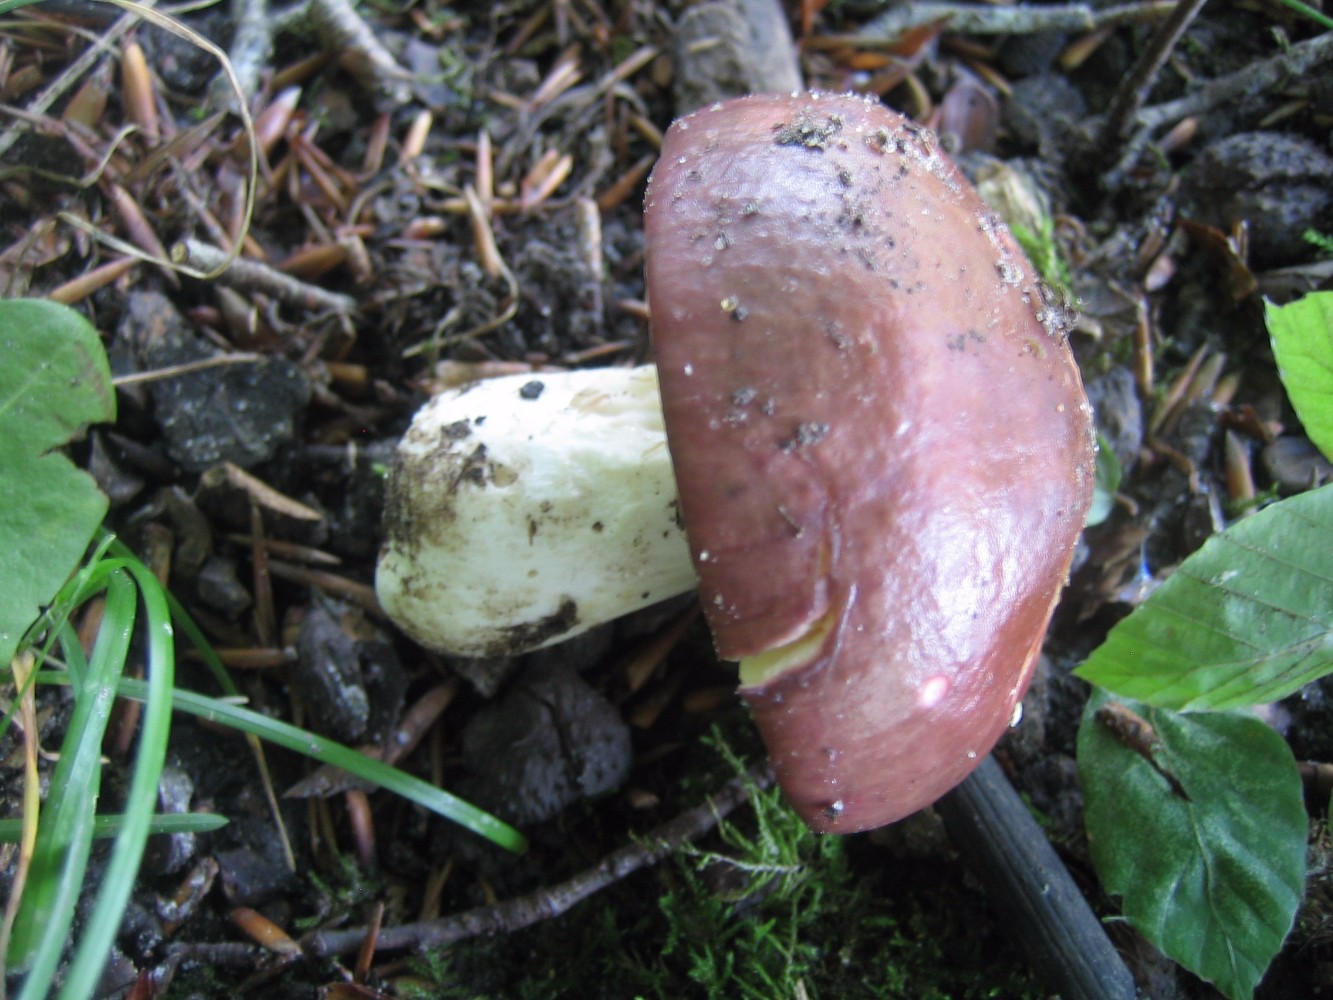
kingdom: Fungi
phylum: Basidiomycota
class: Agaricomycetes
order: Russulales
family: Russulaceae
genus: Russula
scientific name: Russula
